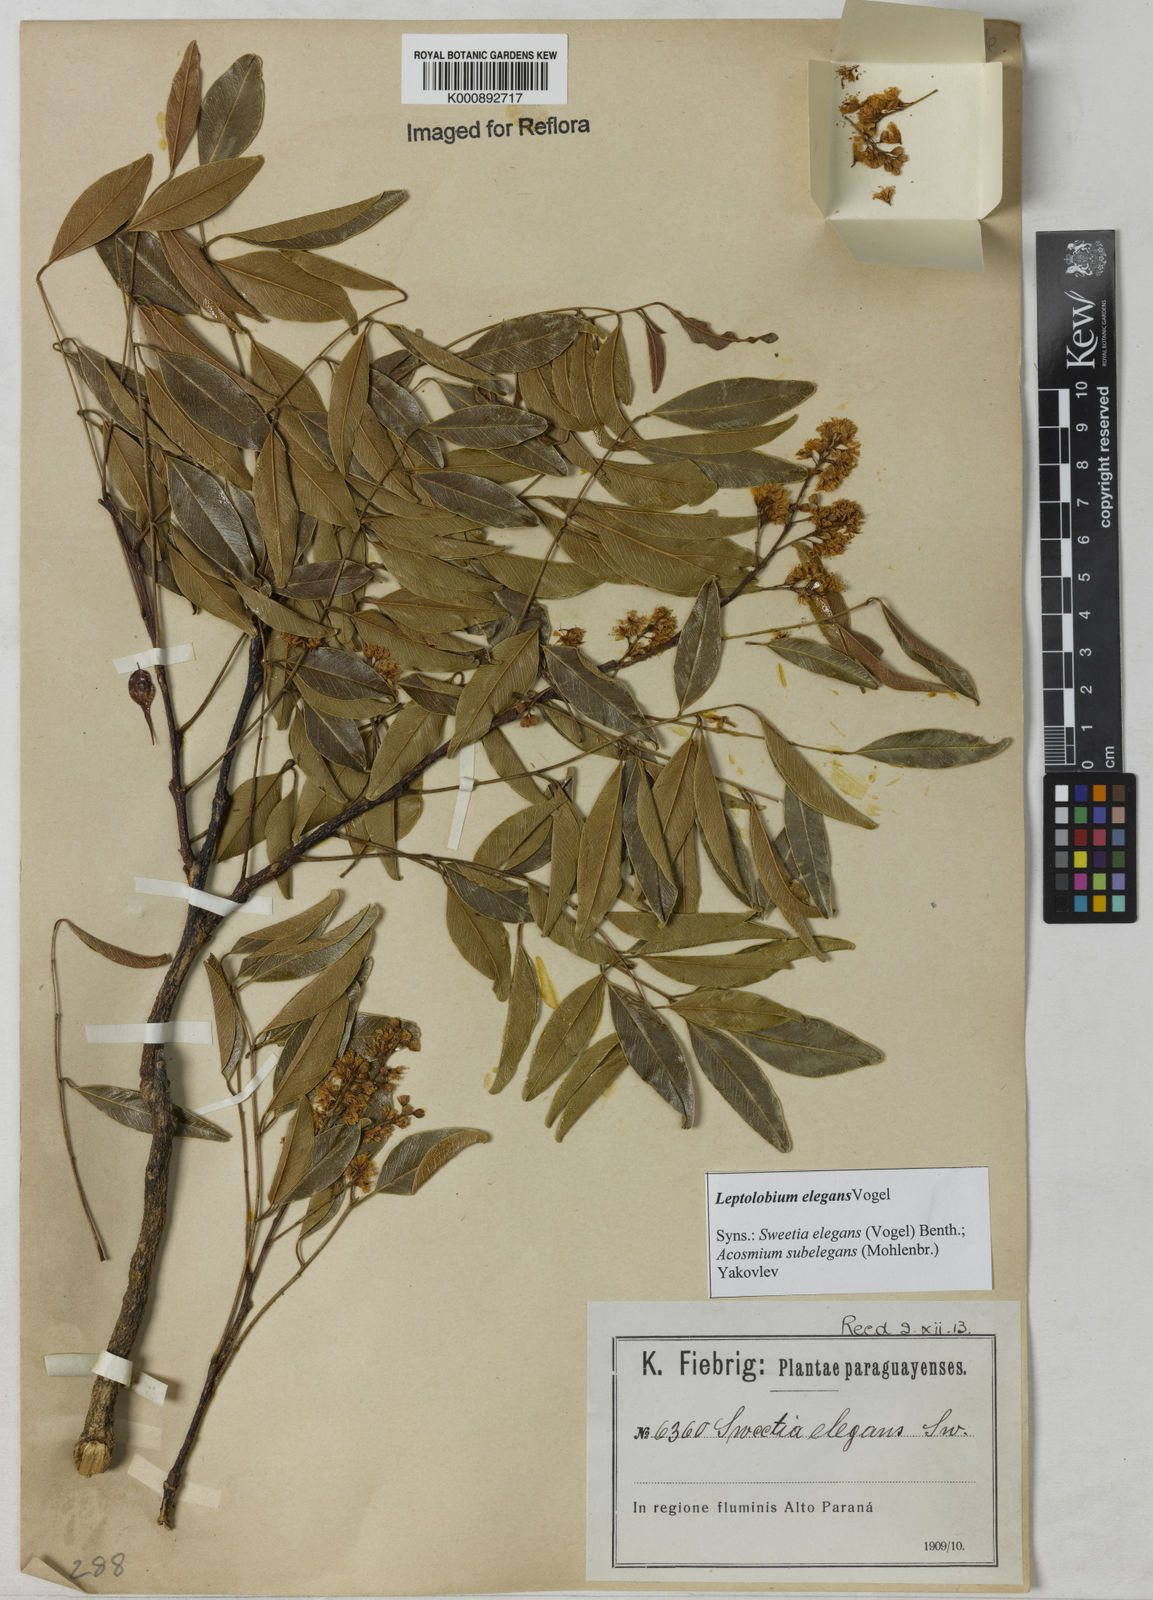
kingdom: Plantae
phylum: Tracheophyta
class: Magnoliopsida
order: Fabales
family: Fabaceae
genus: Leptolobium
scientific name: Leptolobium elegans
